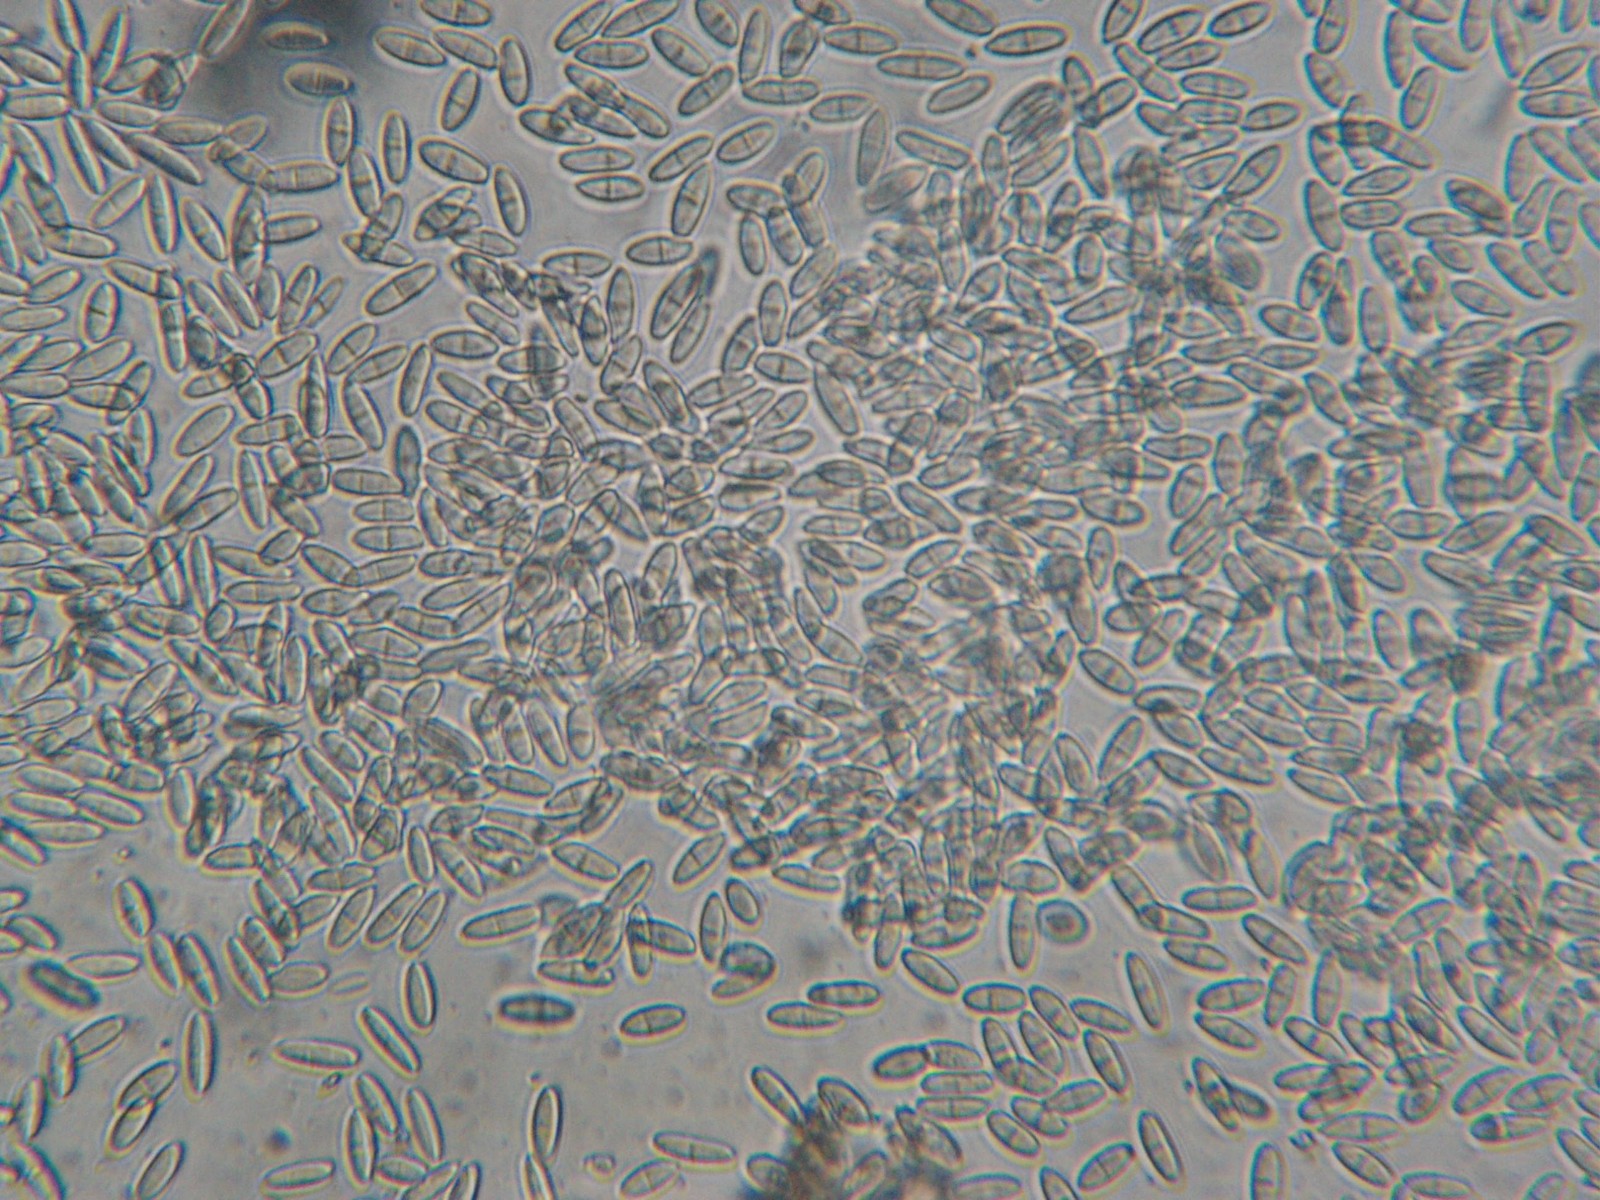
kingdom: Fungi
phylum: Ascomycota
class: Sordariomycetes
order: Diaporthales
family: Gnomoniaceae
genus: Plagiostoma
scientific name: Plagiostoma salicellum
